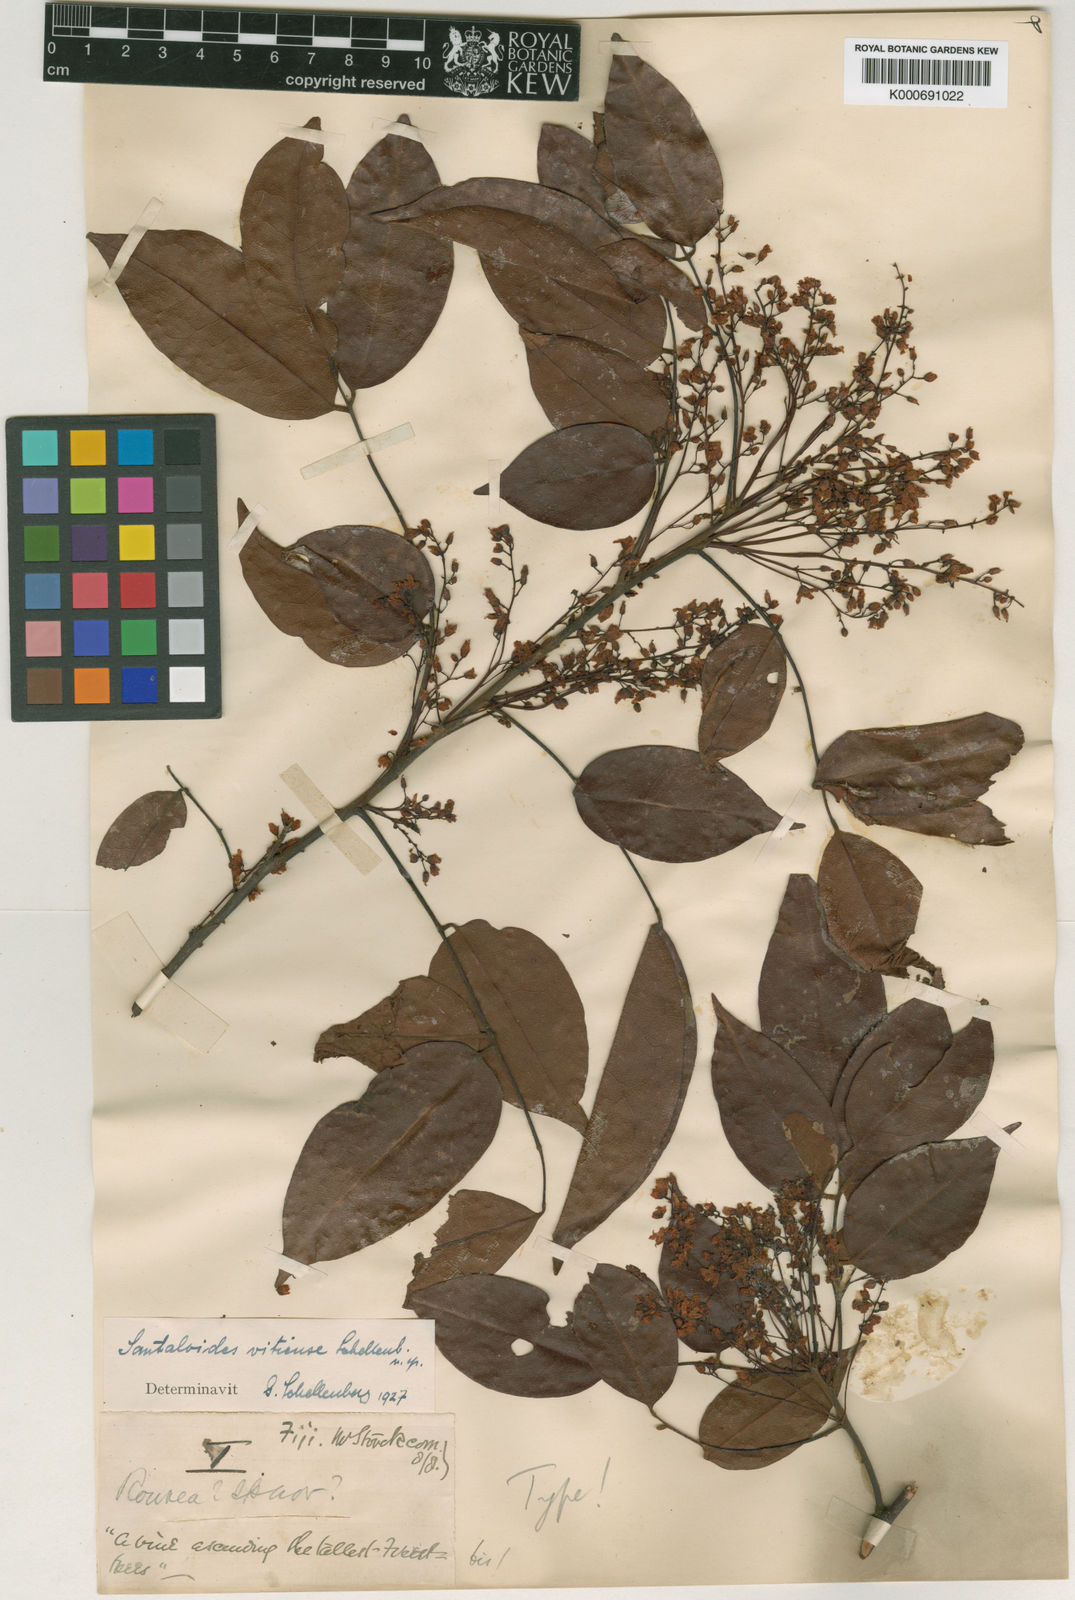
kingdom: Plantae
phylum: Tracheophyta
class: Magnoliopsida
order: Oxalidales
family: Connaraceae
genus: Rourea
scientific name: Rourea
